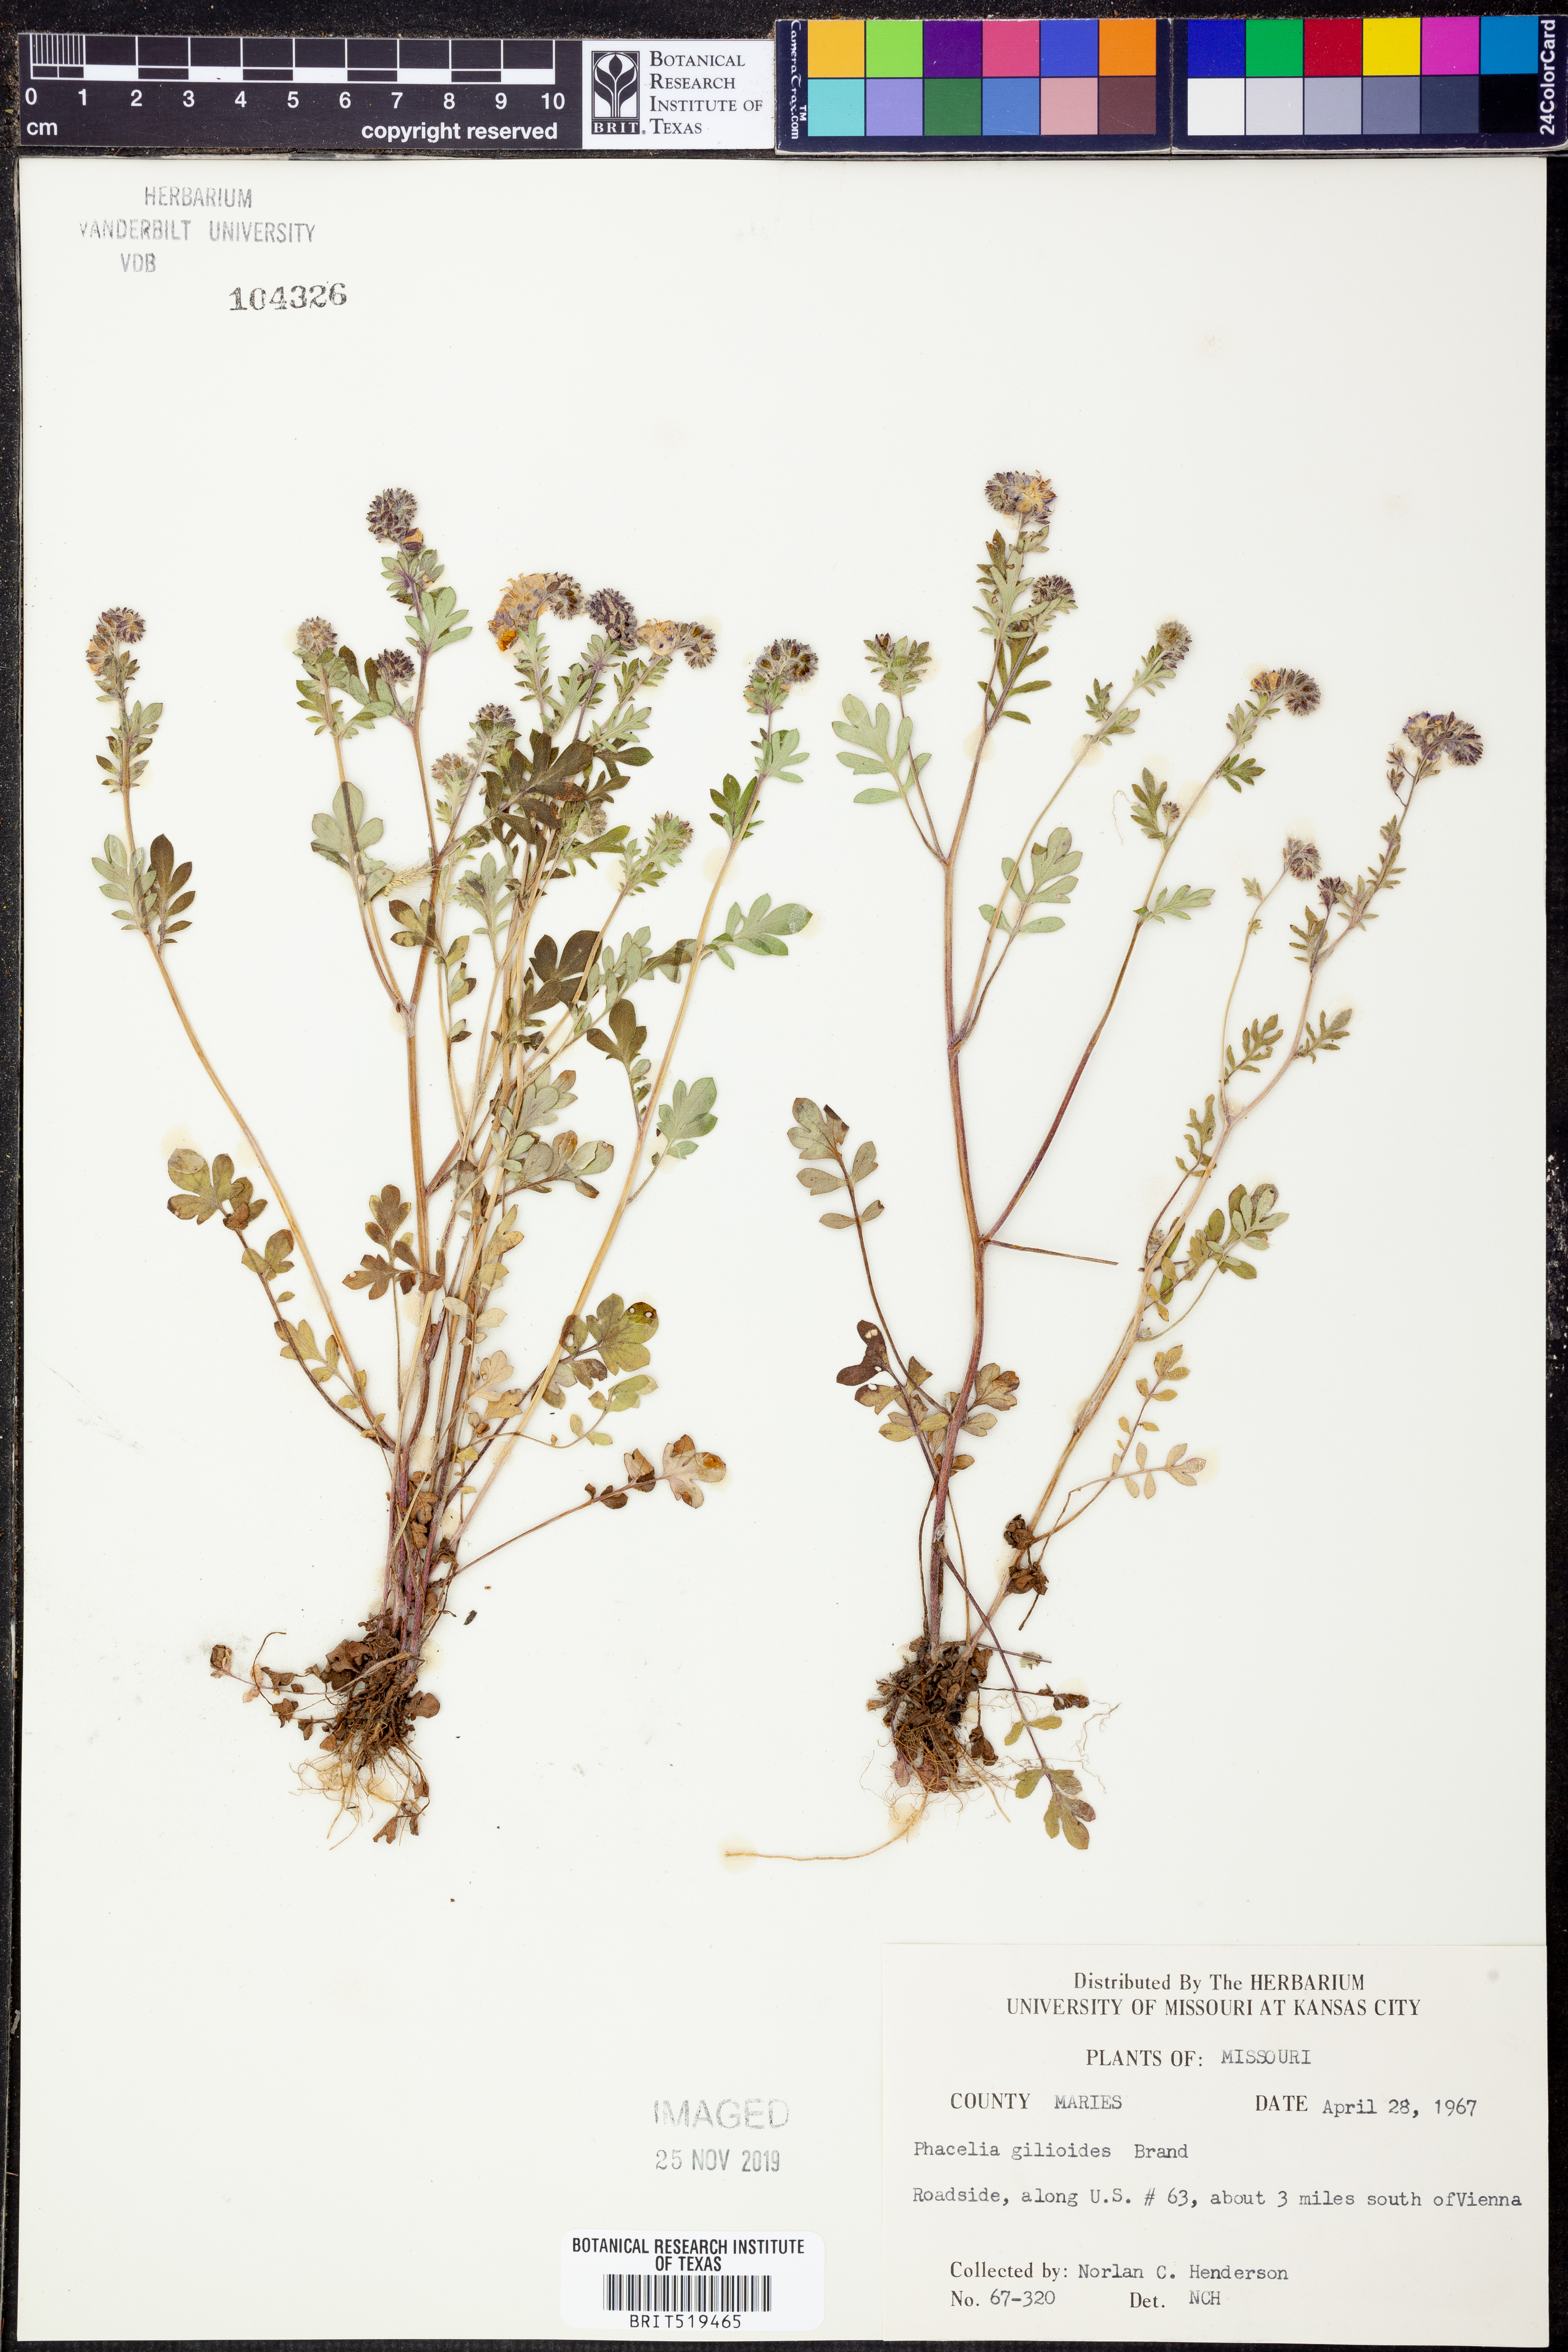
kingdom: Plantae
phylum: Tracheophyta
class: Magnoliopsida
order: Boraginales
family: Hydrophyllaceae
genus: Phacelia
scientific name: Phacelia gilioides
